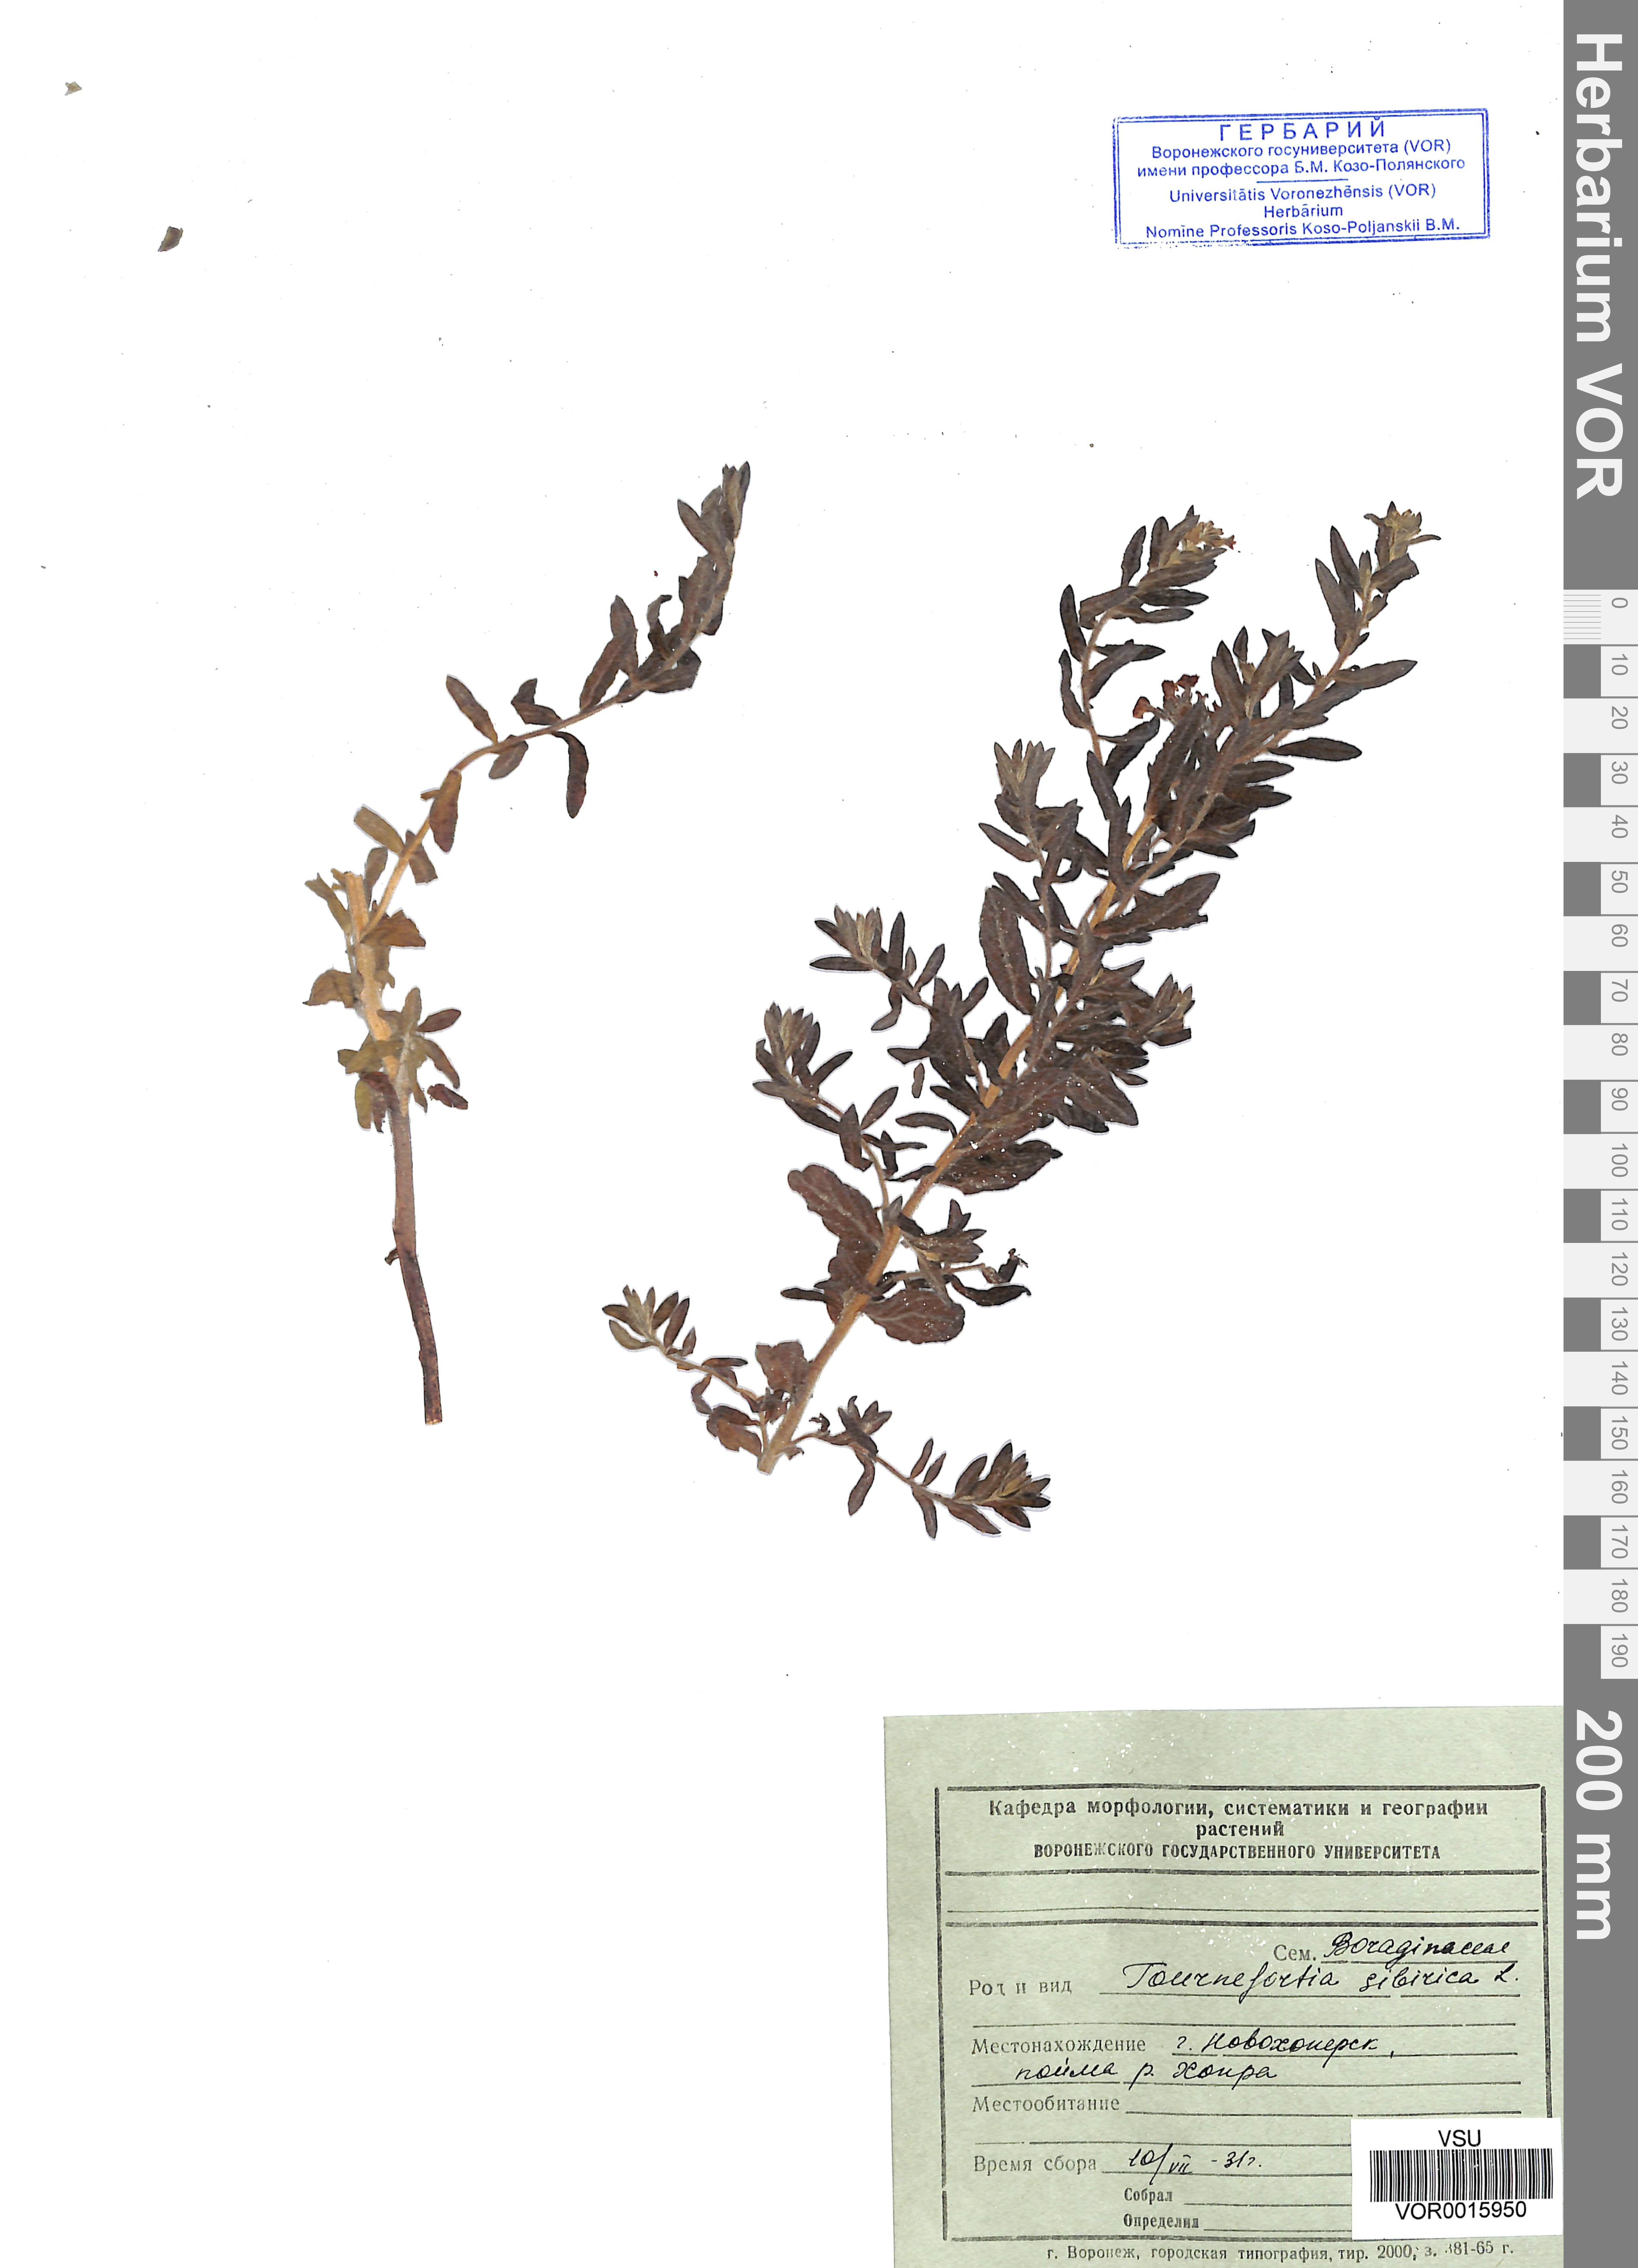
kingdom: Plantae
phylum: Tracheophyta
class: Magnoliopsida
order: Boraginales
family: Heliotropiaceae
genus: Tournefortia
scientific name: Tournefortia sibirica
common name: Siberian sea rosemary
